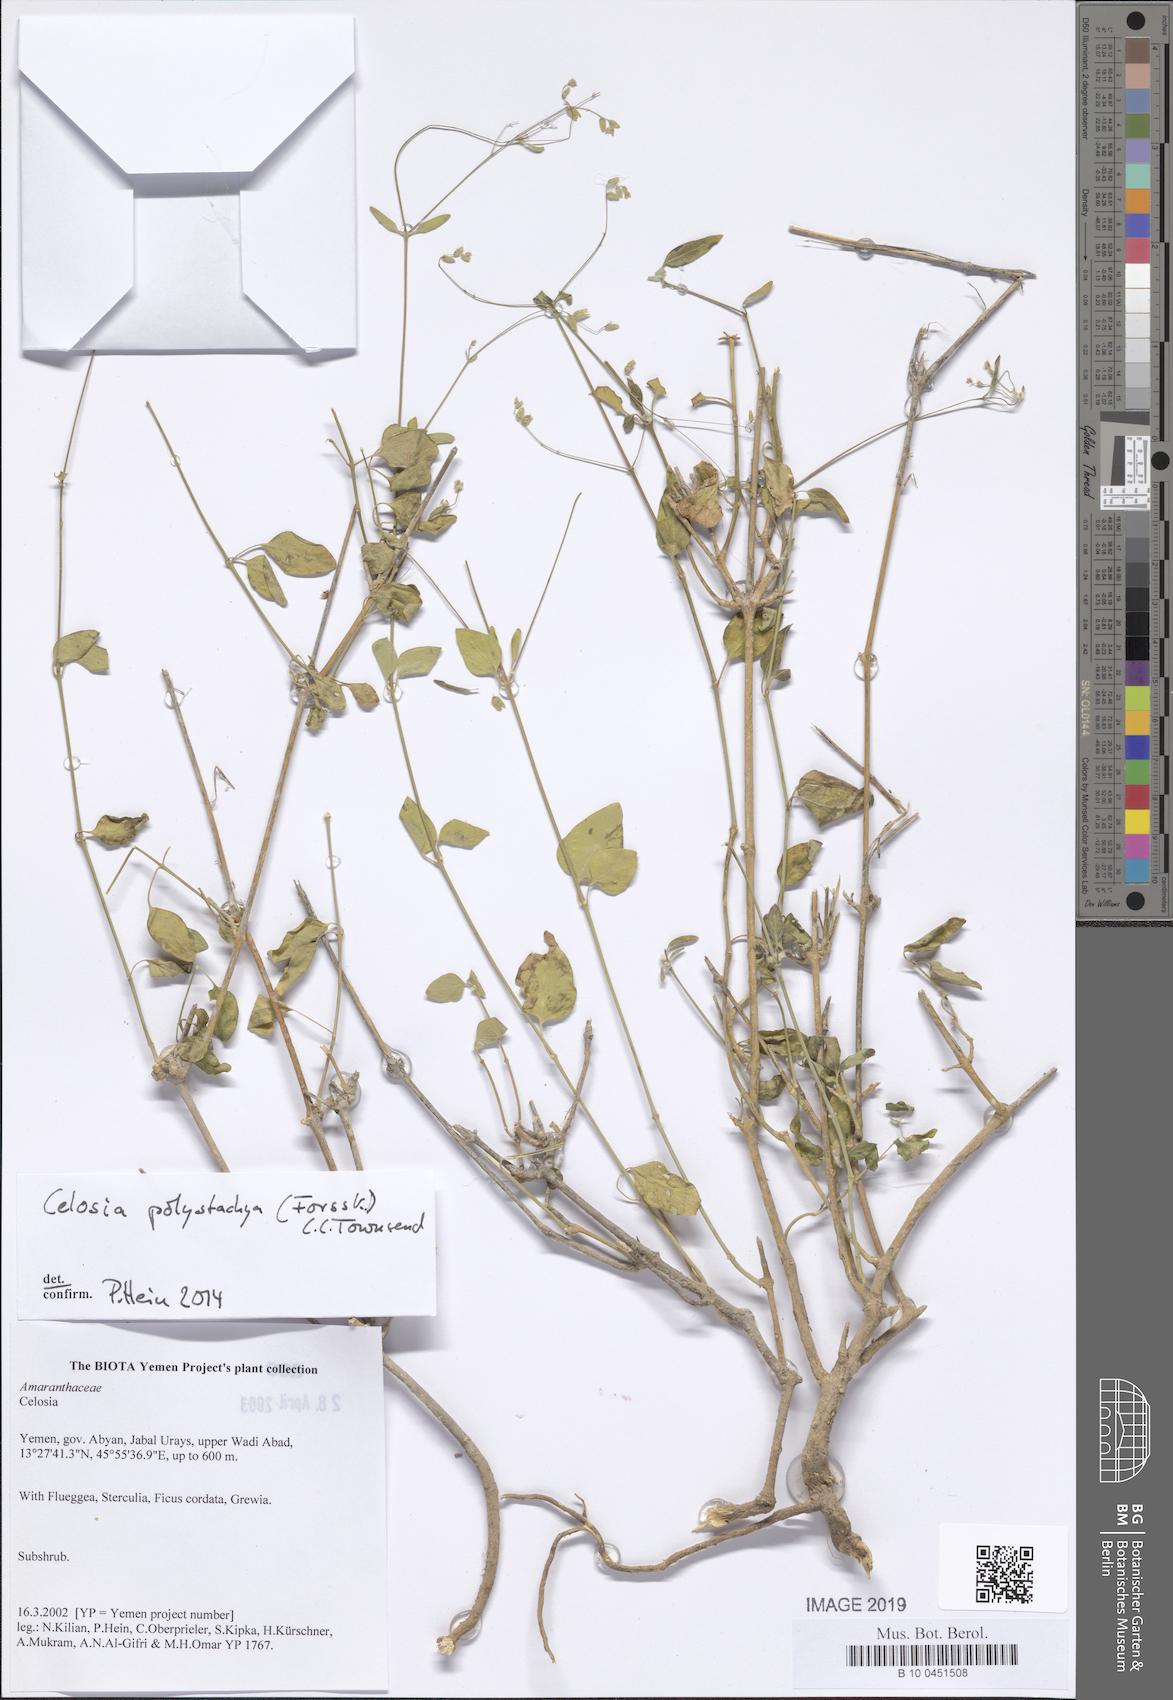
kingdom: Plantae
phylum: Tracheophyta
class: Magnoliopsida
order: Caryophyllales
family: Amaranthaceae
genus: Celosia
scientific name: Celosia
